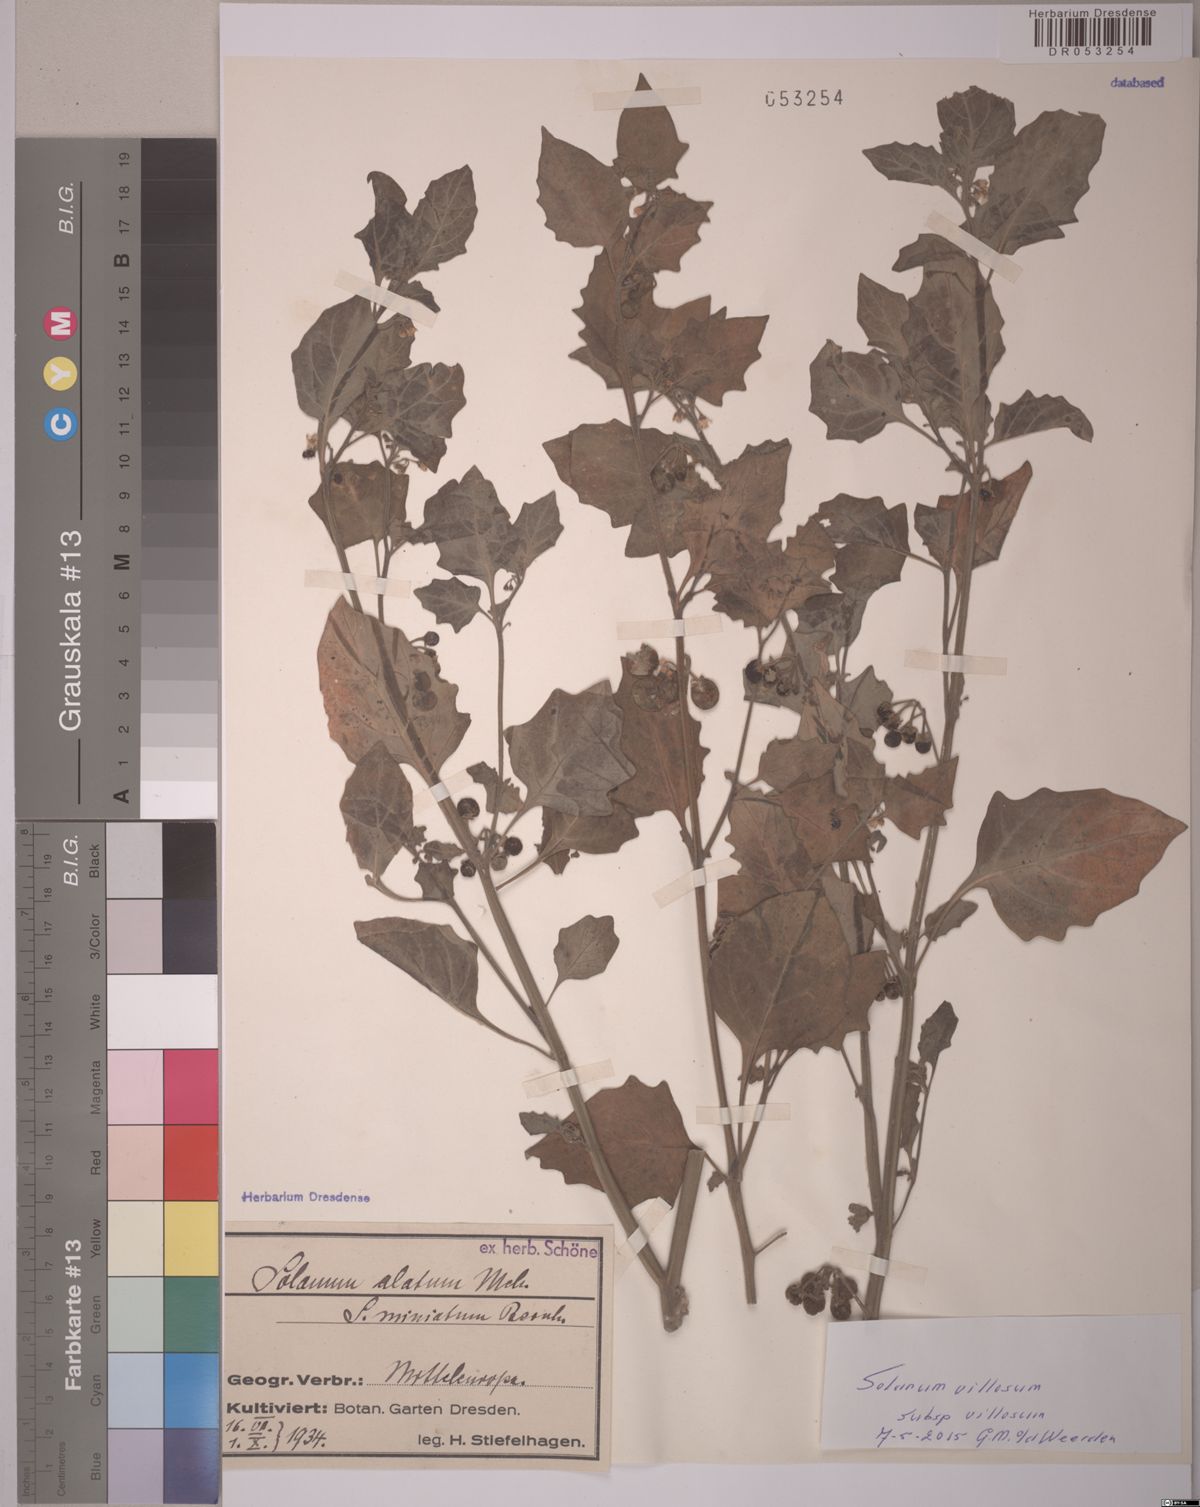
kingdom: Plantae
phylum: Tracheophyta
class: Magnoliopsida
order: Solanales
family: Solanaceae
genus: Solanum
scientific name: Solanum villosum
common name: Red nightshade
